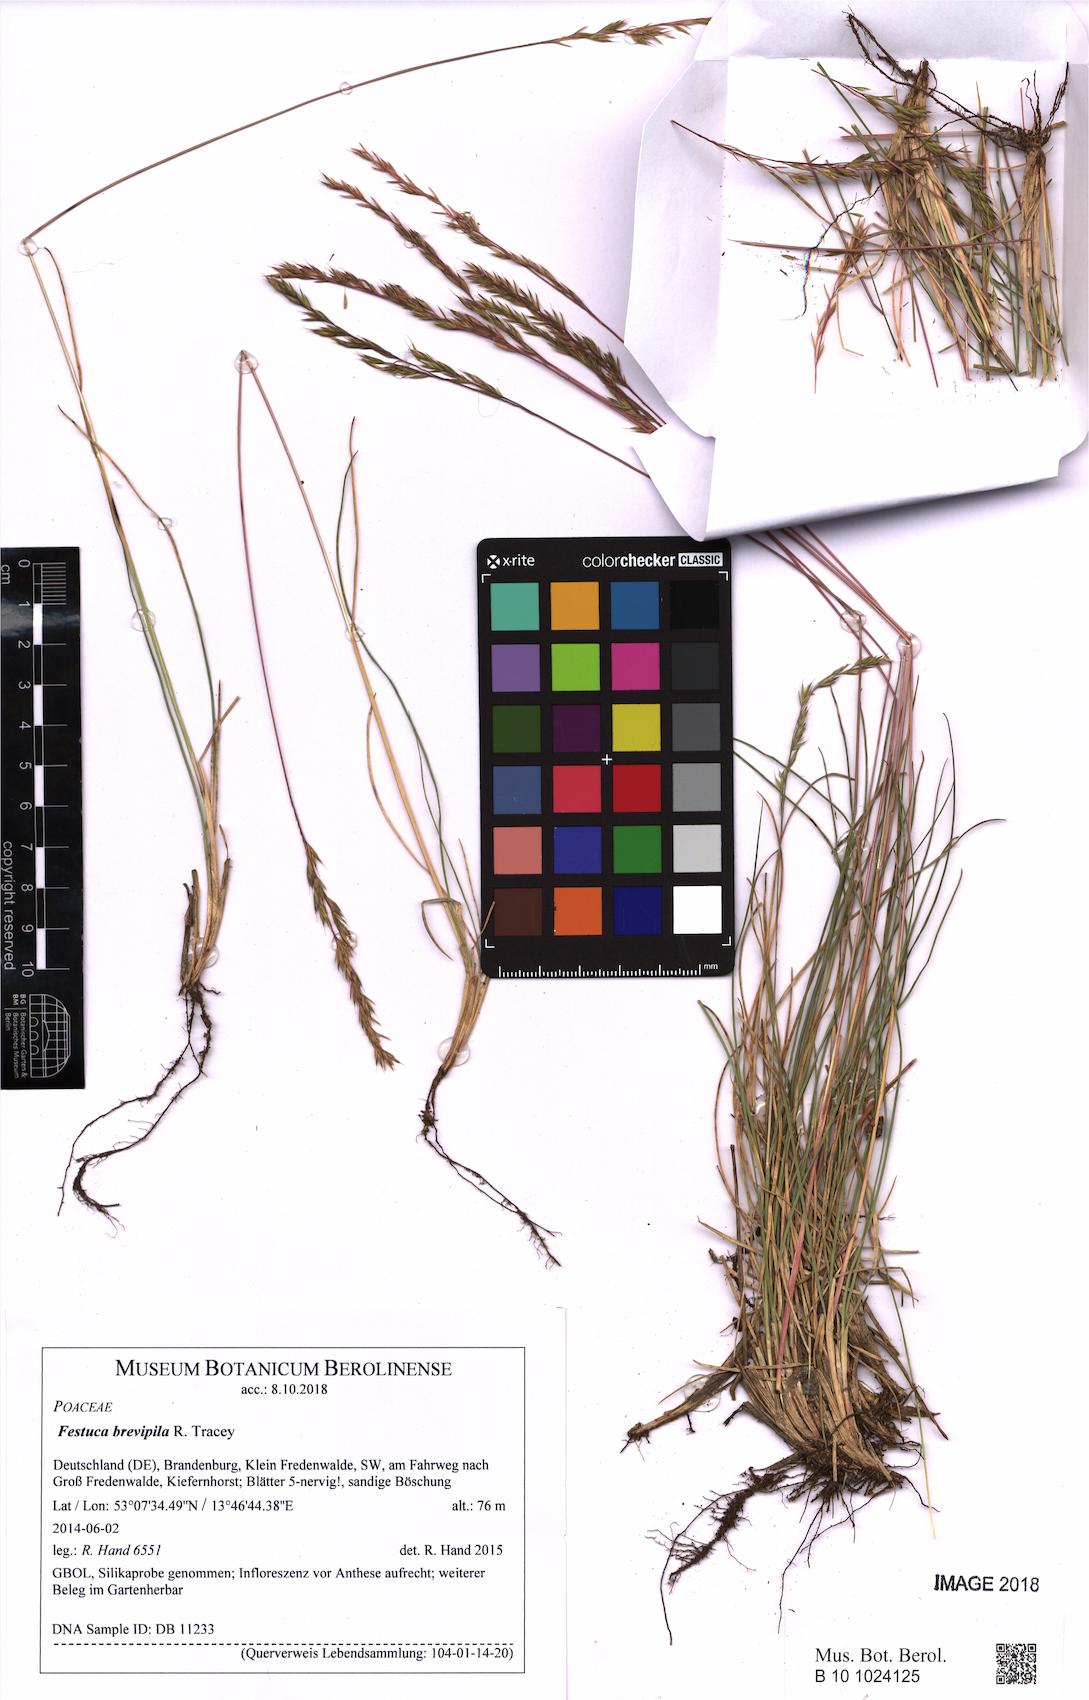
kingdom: Plantae
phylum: Tracheophyta
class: Liliopsida
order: Poales
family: Poaceae
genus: Festuca
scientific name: Festuca trachyphylla
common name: Hard fescue
